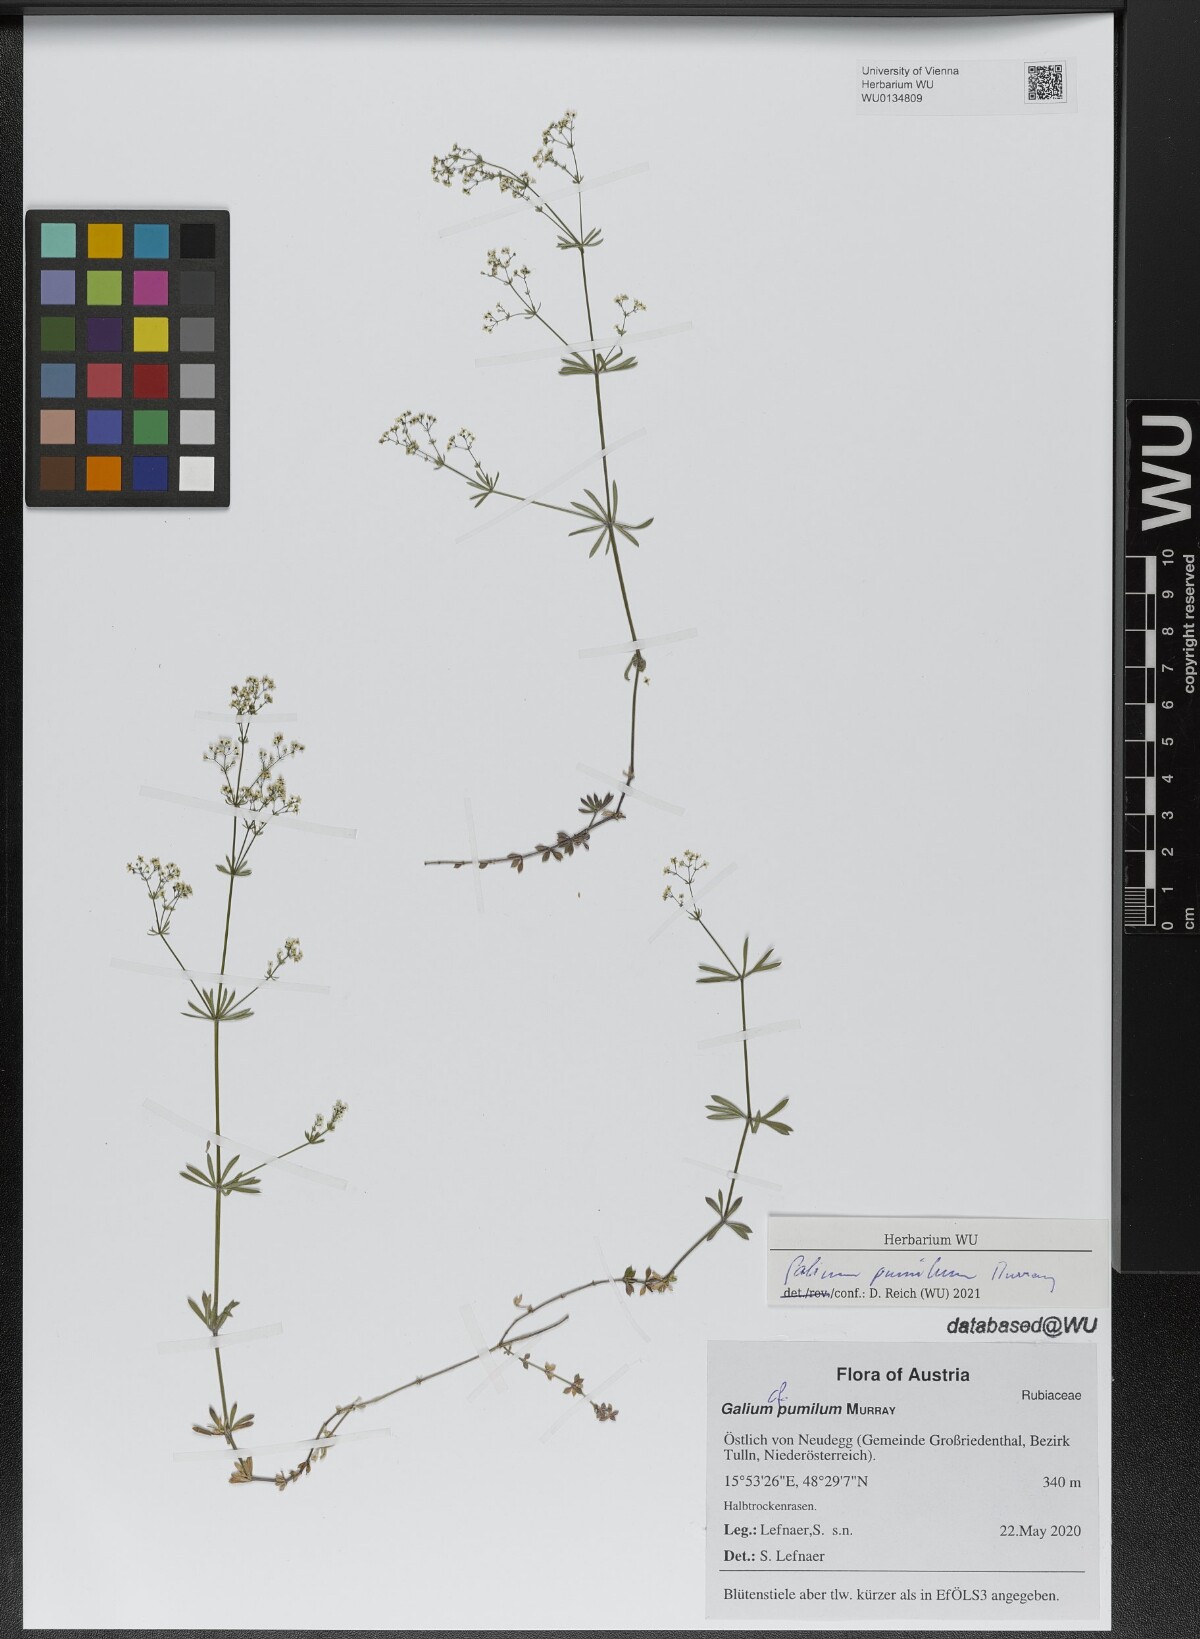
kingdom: Plantae
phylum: Tracheophyta
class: Magnoliopsida
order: Gentianales
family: Rubiaceae
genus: Galium
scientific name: Galium pumilum
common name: Slender bedstraw
